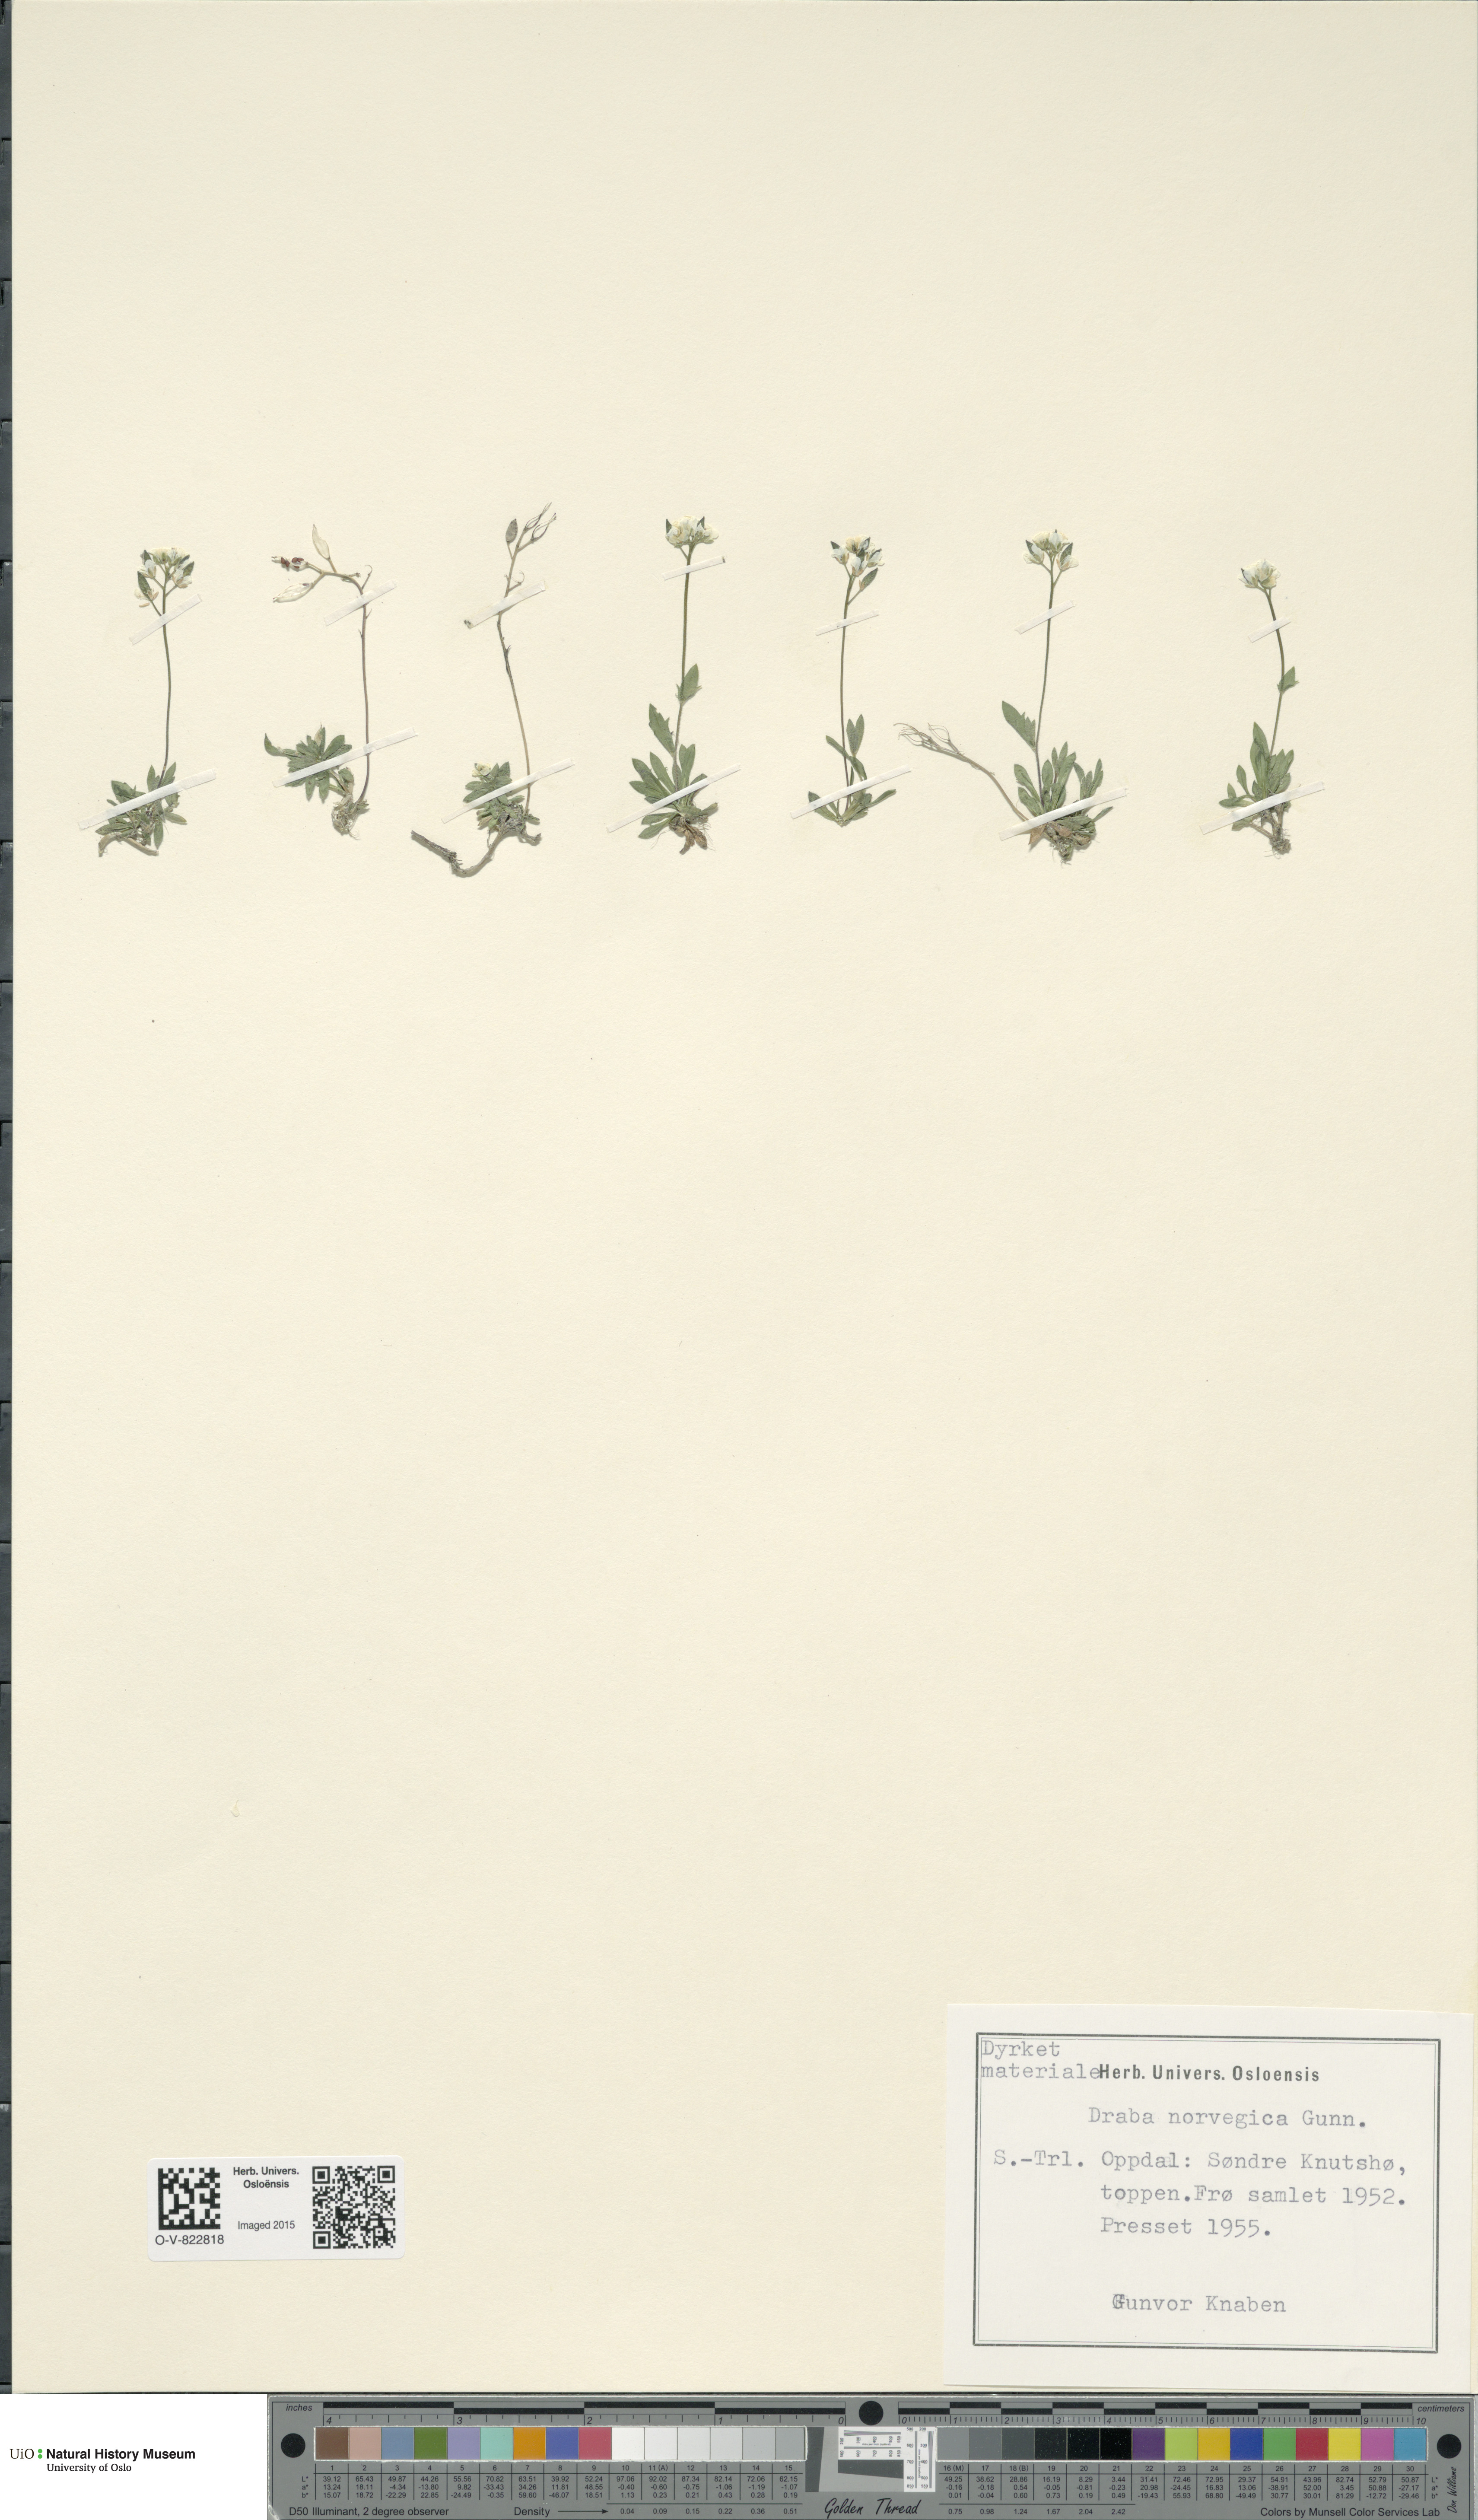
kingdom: Plantae
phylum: Tracheophyta
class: Magnoliopsida
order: Brassicales
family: Brassicaceae
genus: Draba
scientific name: Draba norvegica
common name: Rock whitlowgrass
